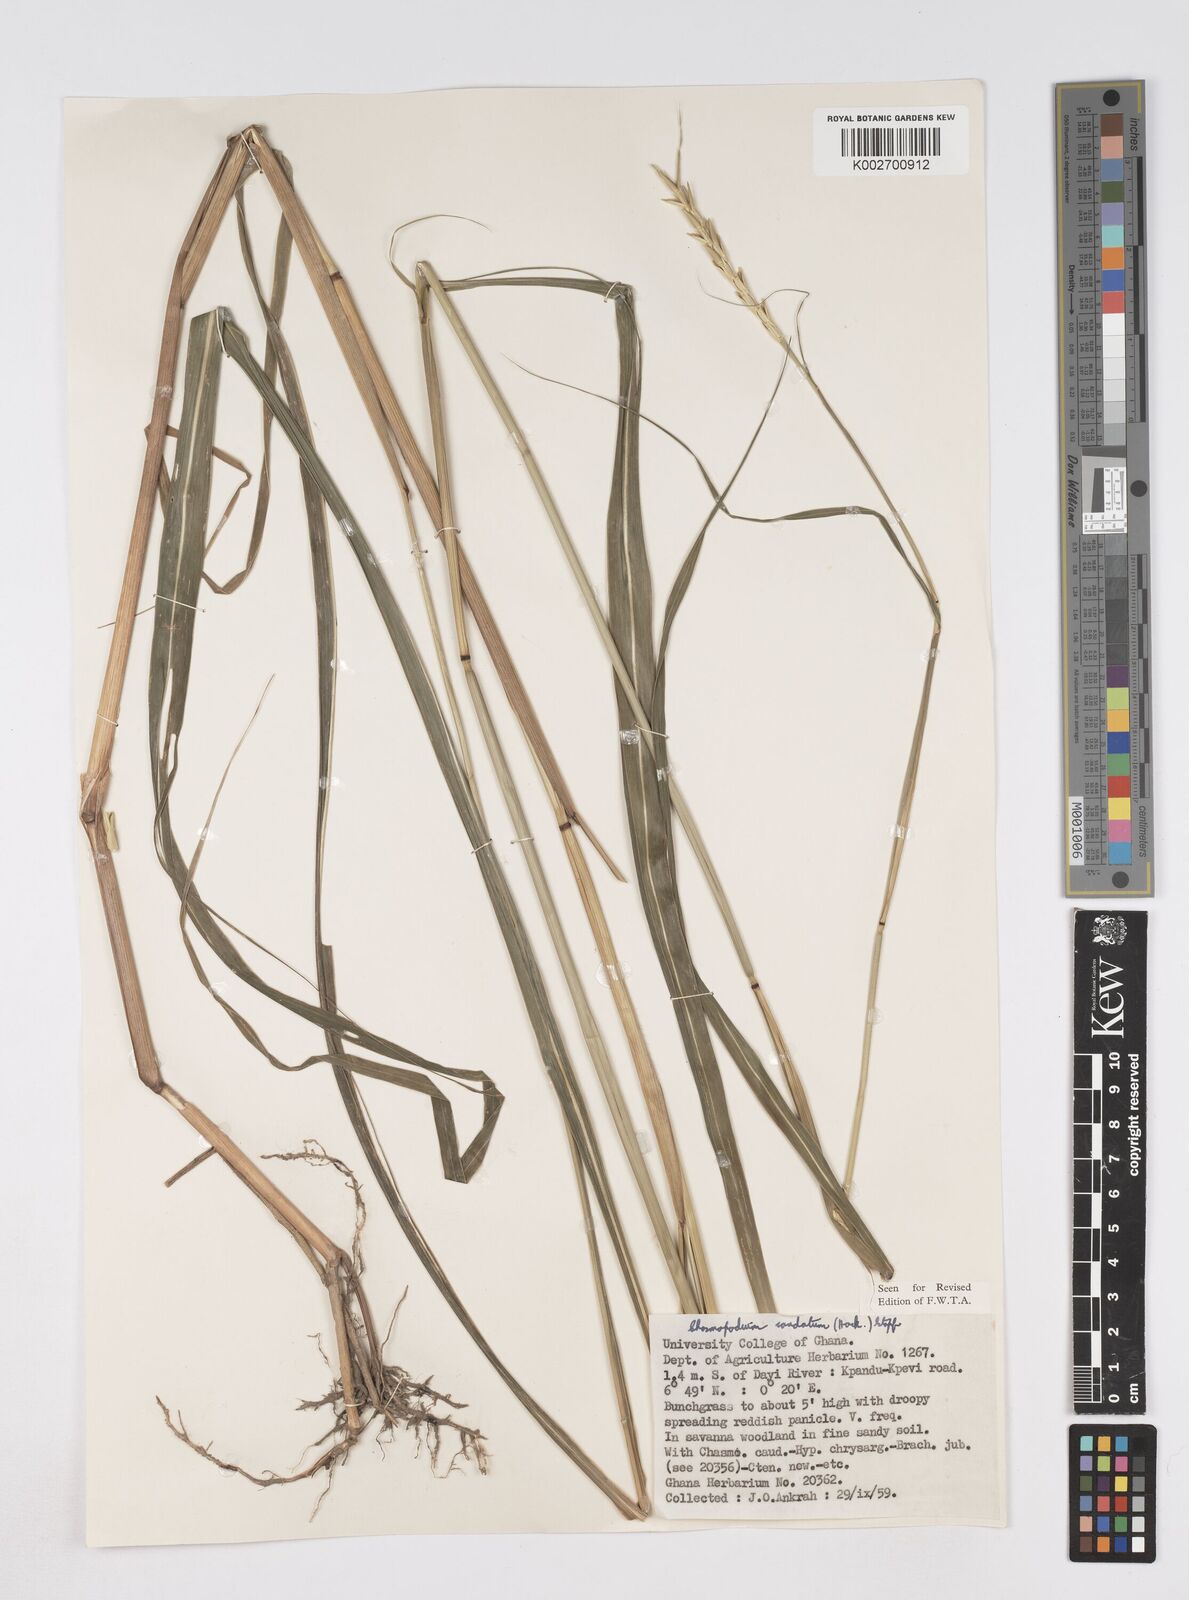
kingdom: Plantae
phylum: Tracheophyta
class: Liliopsida
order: Poales
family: Poaceae
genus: Chasmopodium
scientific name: Chasmopodium caudatum
